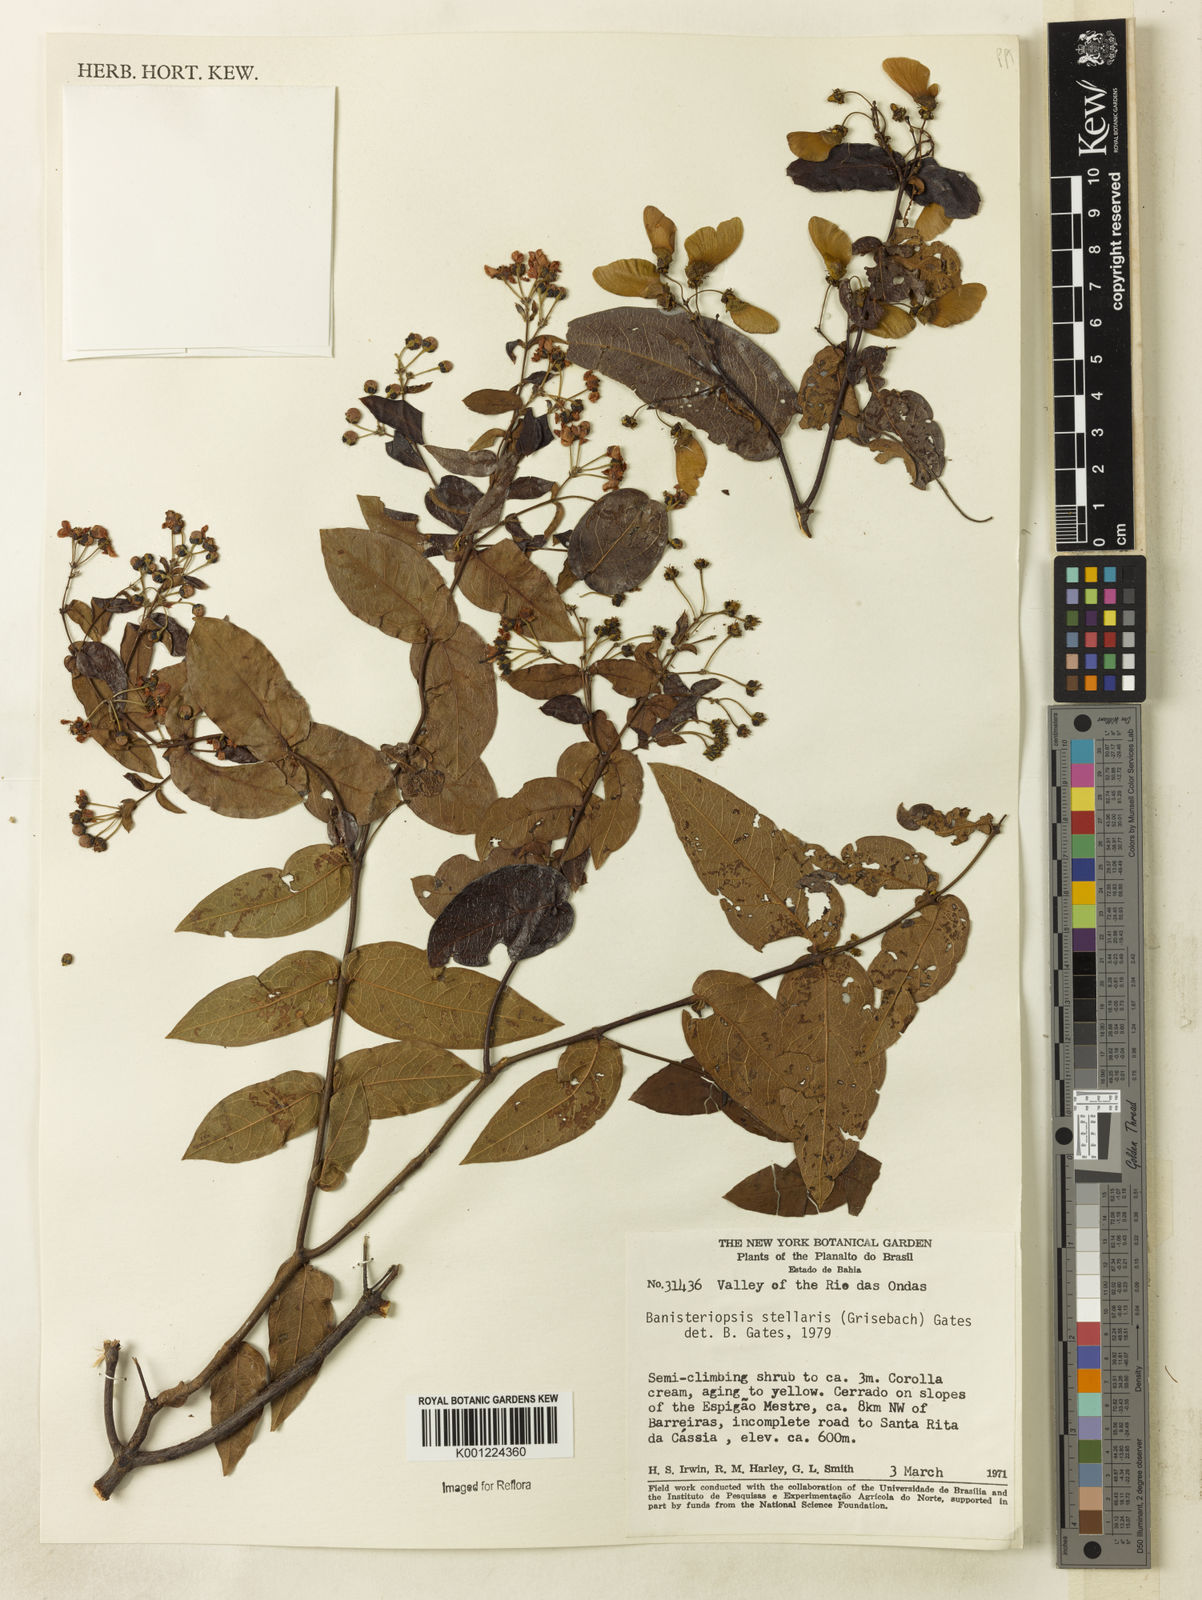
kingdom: Plantae
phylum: Tracheophyta
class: Magnoliopsida
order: Malpighiales
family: Malpighiaceae
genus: Banisteriopsis
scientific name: Banisteriopsis stellaris
